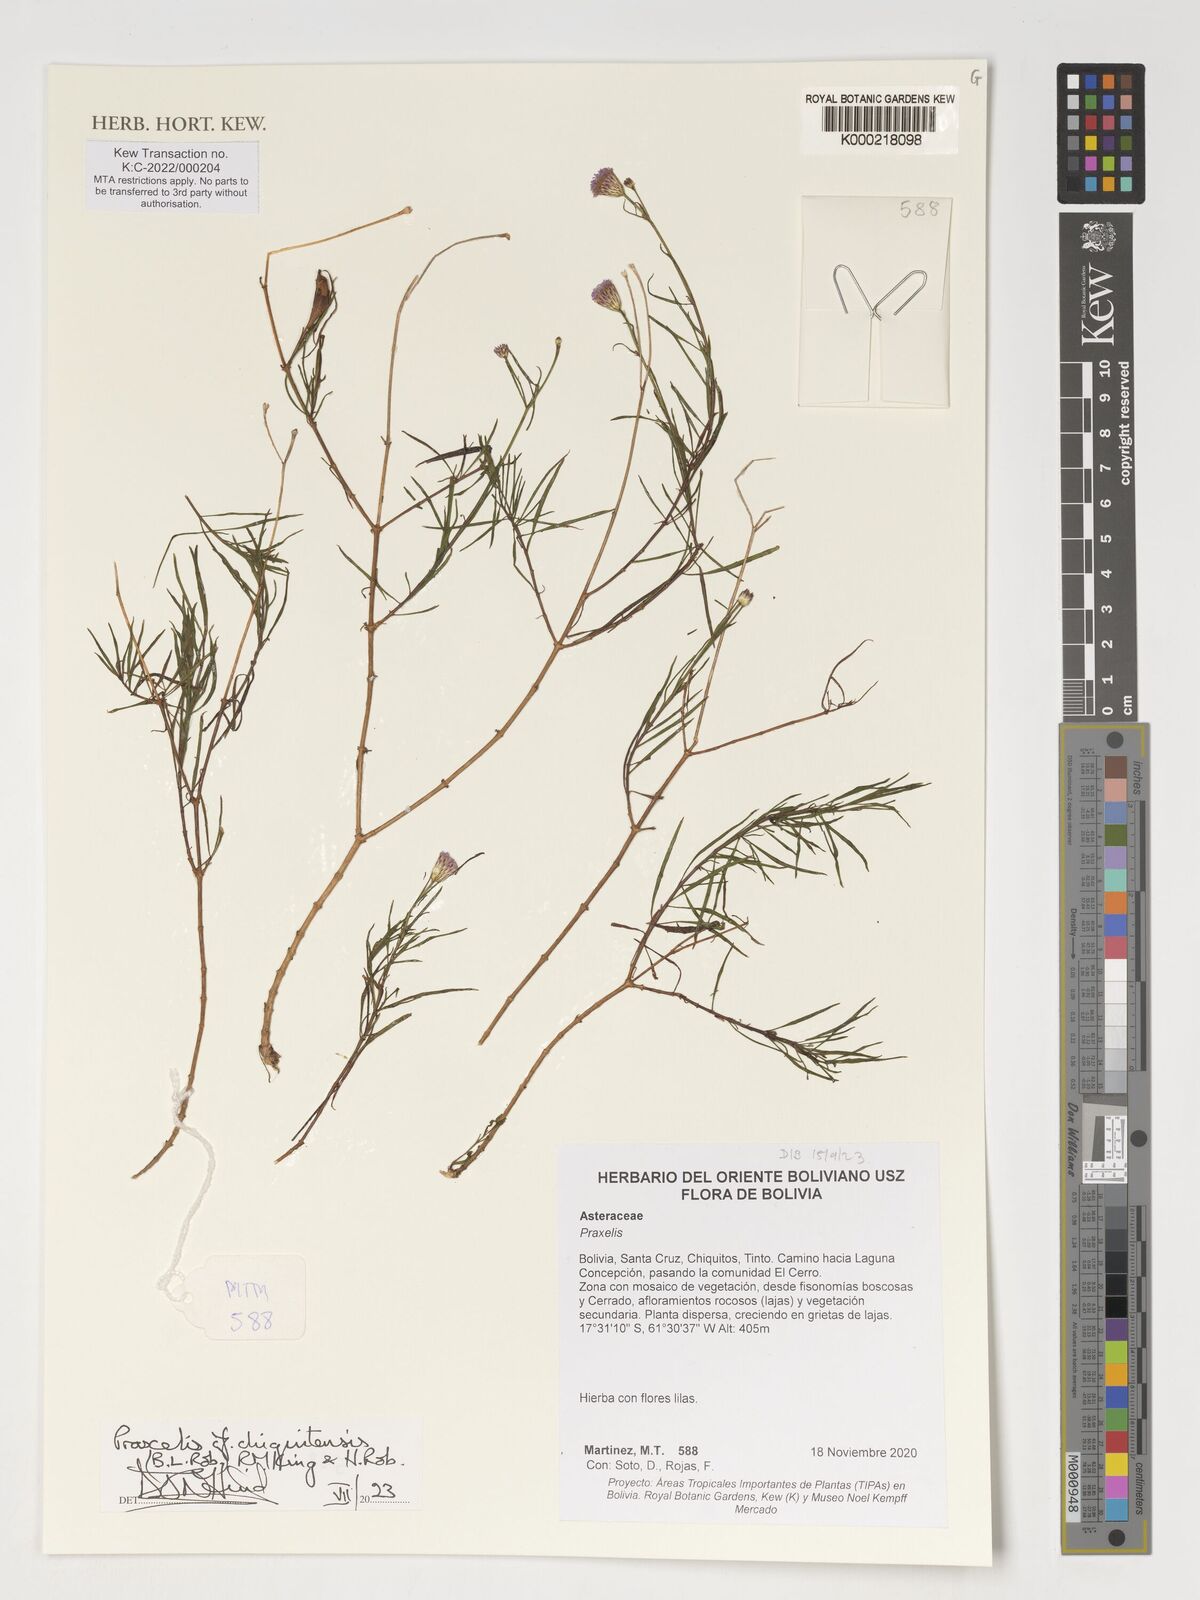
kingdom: Plantae
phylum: Tracheophyta
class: Magnoliopsida
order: Asterales
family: Asteraceae
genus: Praxelis
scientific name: Praxelis chiquitensis
